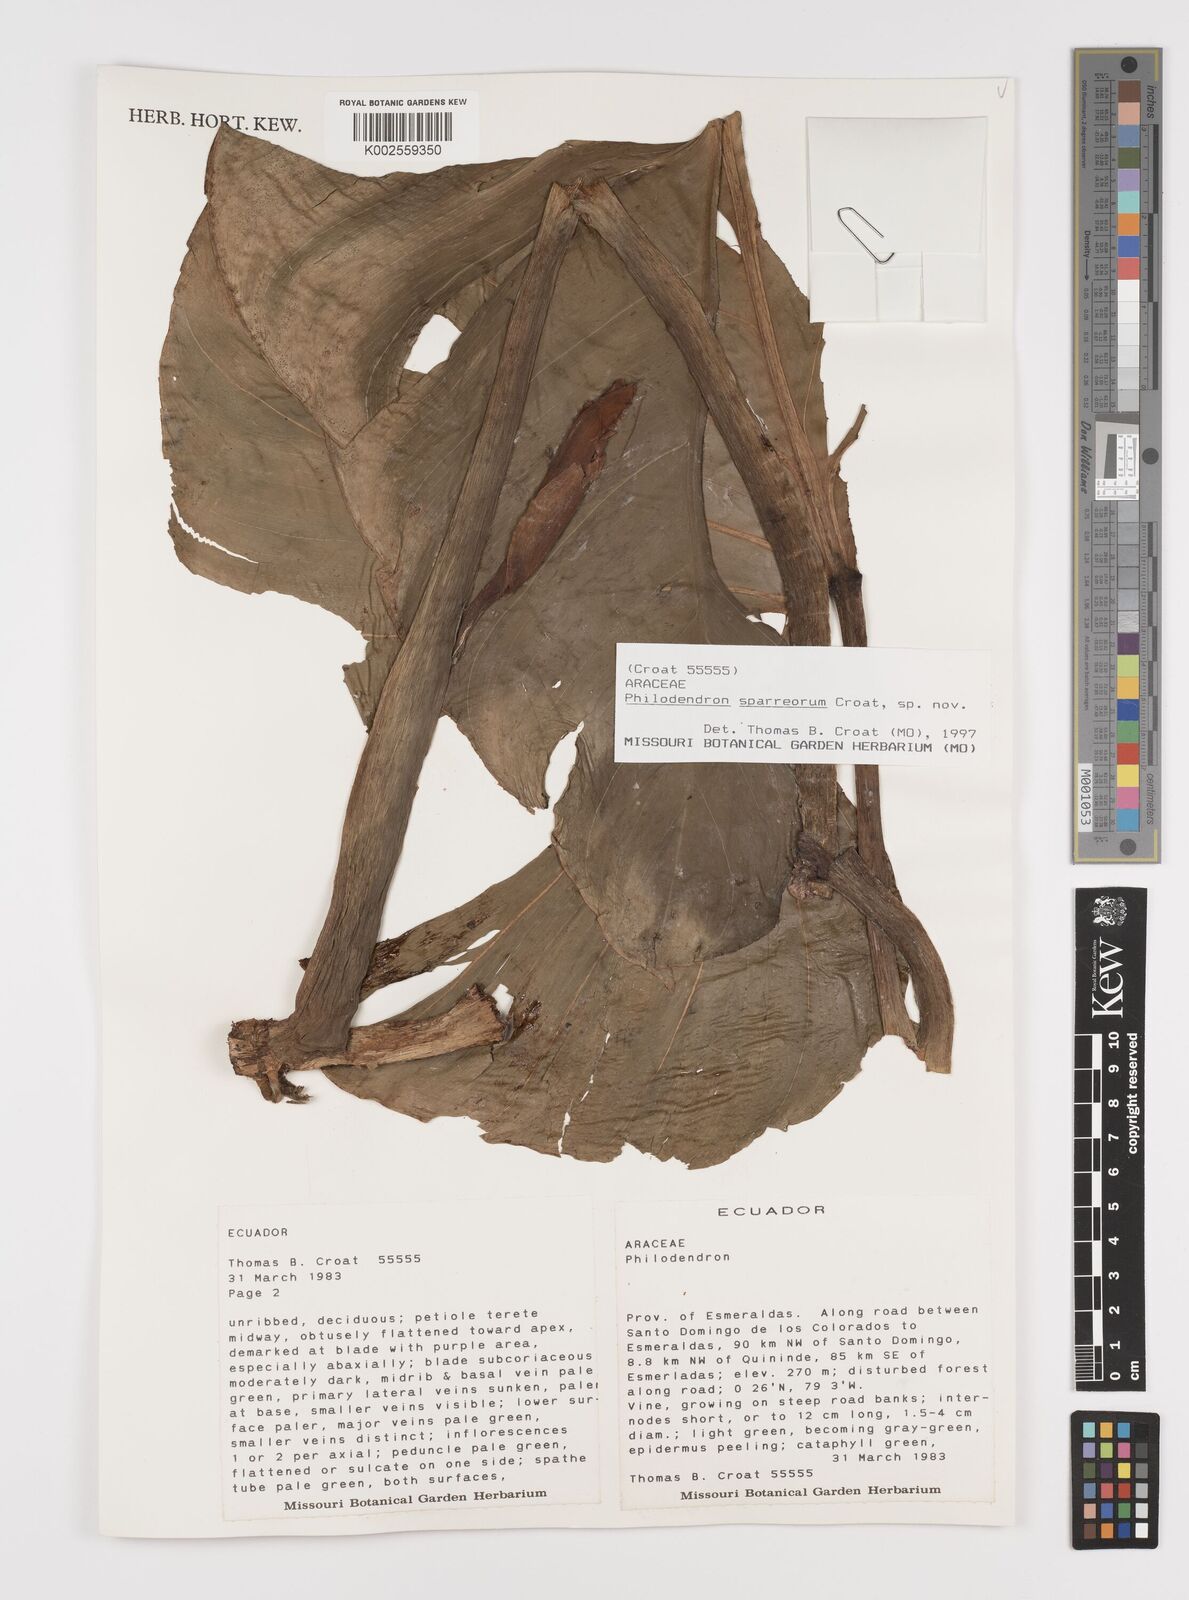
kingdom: Plantae
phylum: Tracheophyta
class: Liliopsida
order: Alismatales
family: Araceae
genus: Philodendron
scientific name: Philodendron sparreorum
